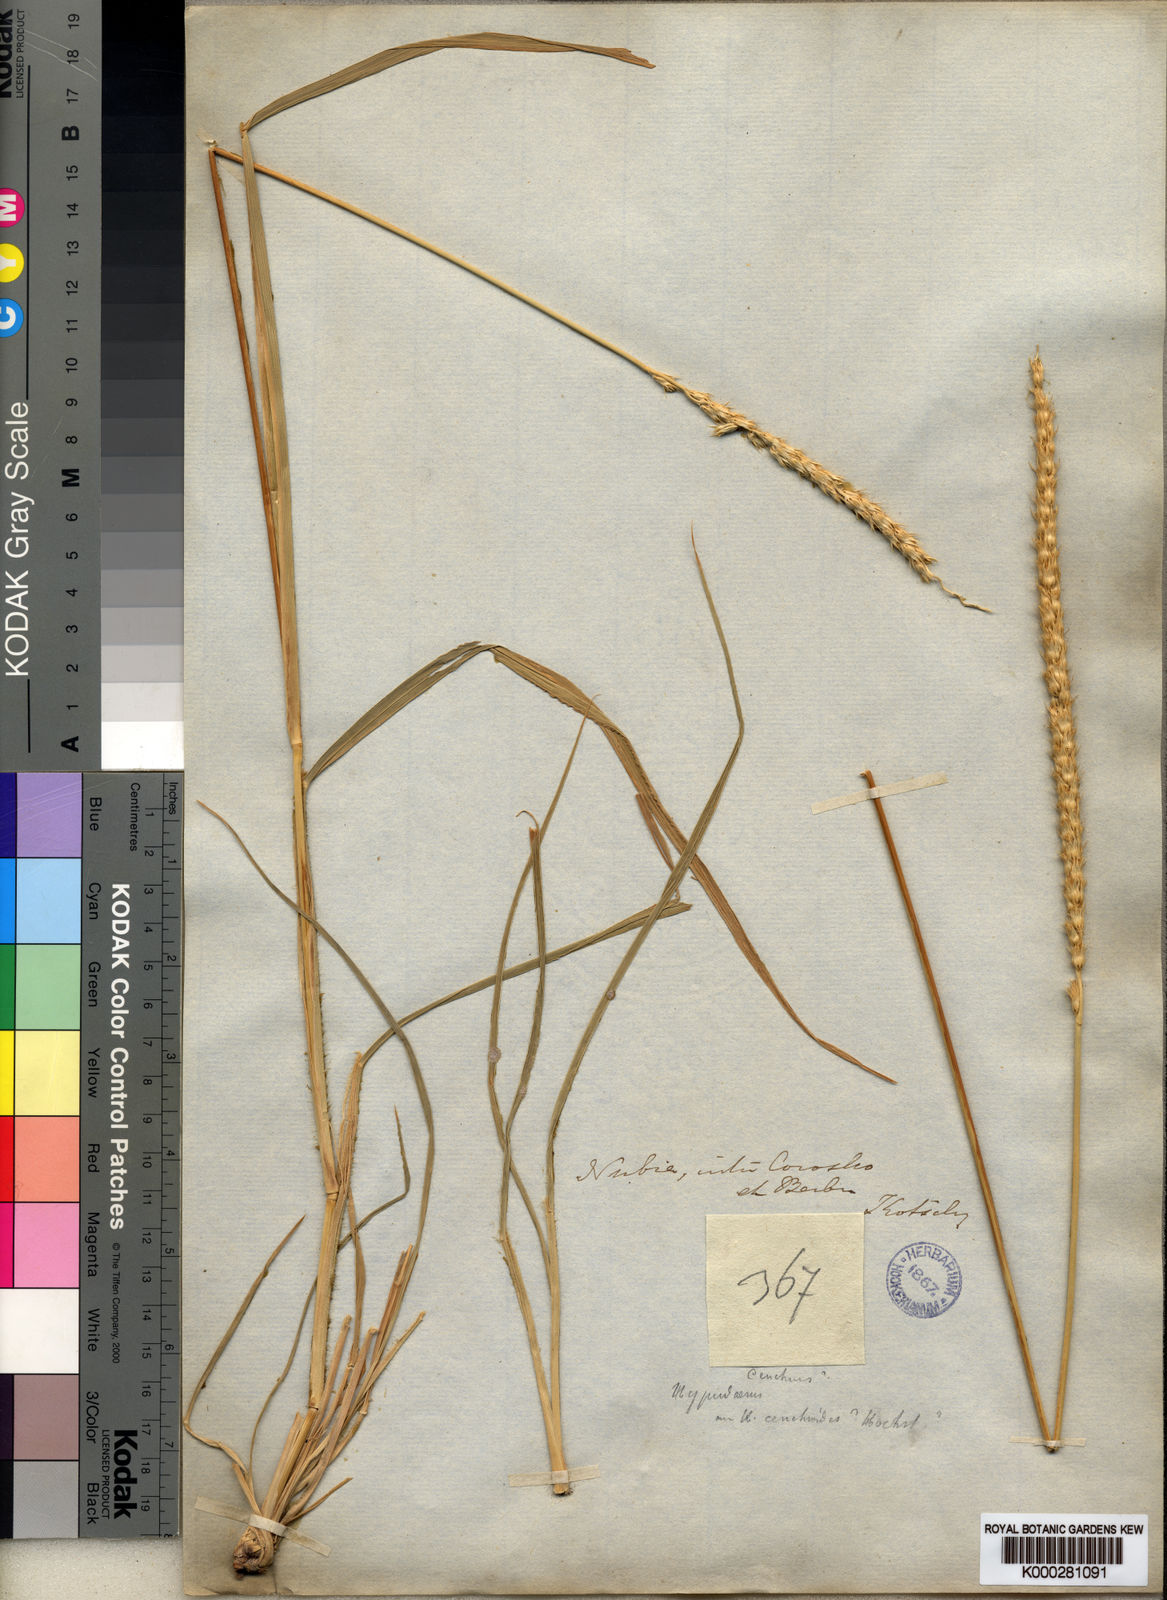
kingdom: Plantae
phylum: Tracheophyta
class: Liliopsida
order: Poales
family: Poaceae
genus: Anthephora
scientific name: Anthephora pubescens
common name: Wool grass
